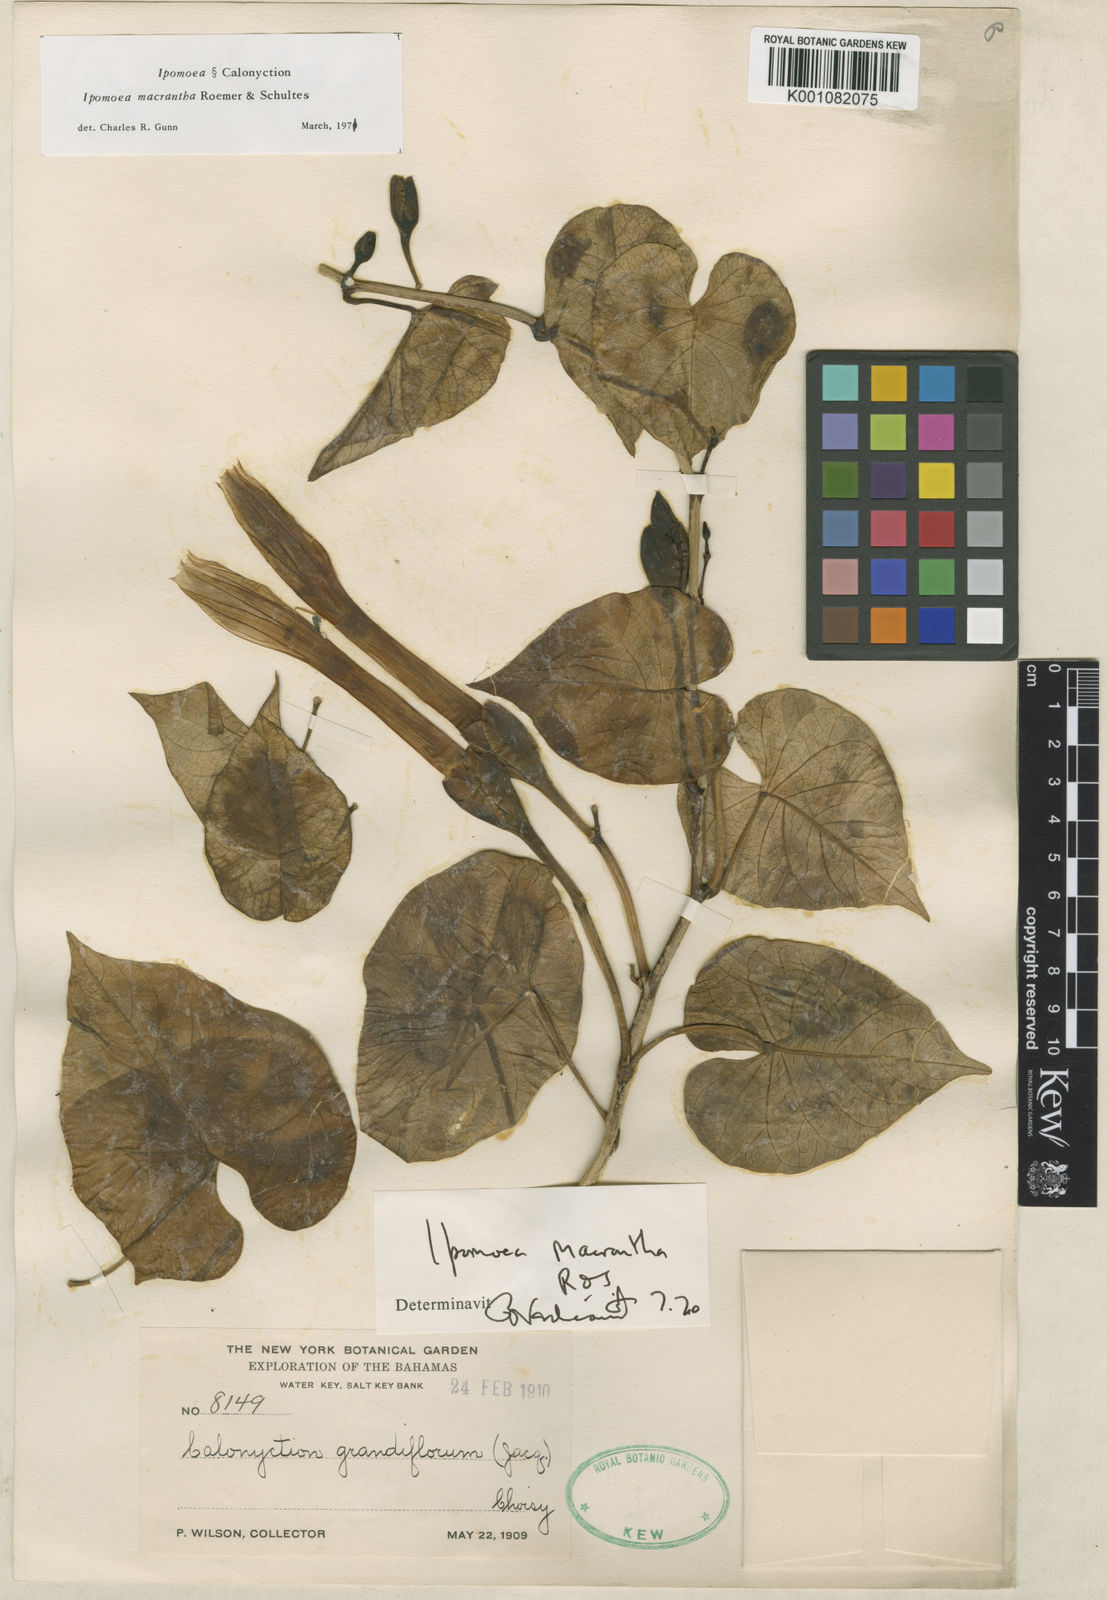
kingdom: Plantae
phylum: Tracheophyta
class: Magnoliopsida
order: Solanales
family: Convolvulaceae
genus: Ipomoea
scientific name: Ipomoea violacea
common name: Beach moonflower
